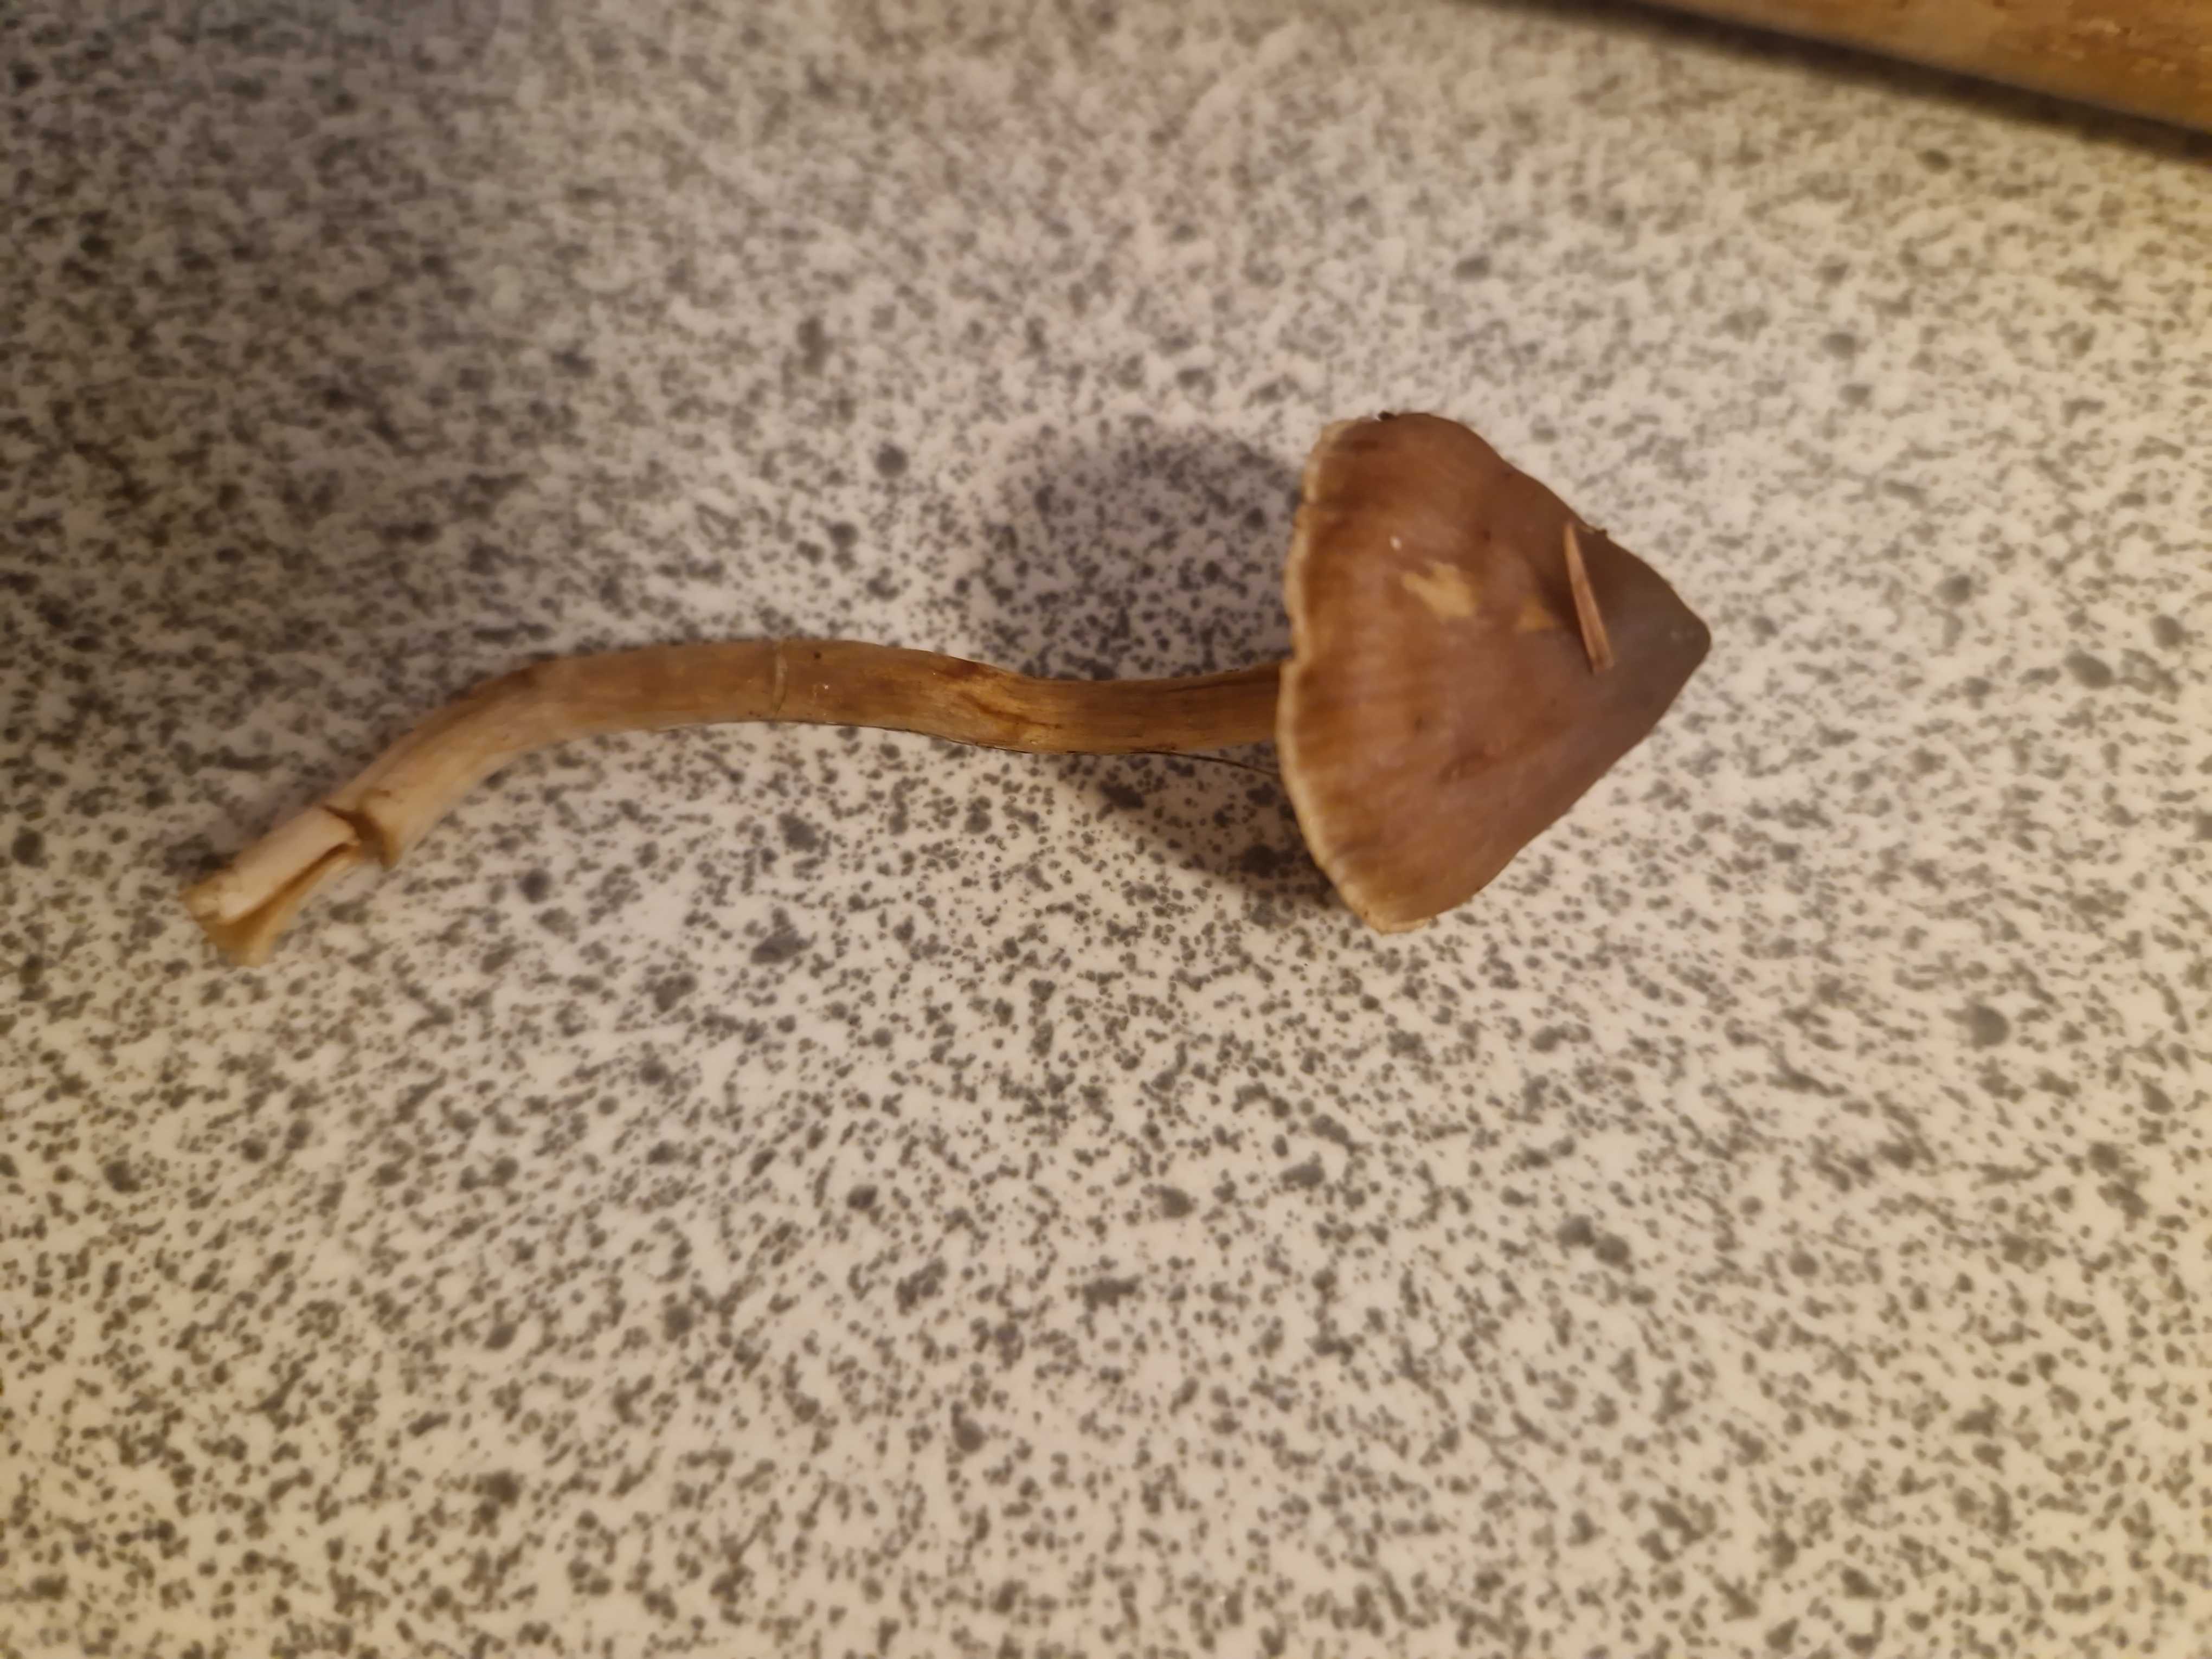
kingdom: Fungi
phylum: Basidiomycota
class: Agaricomycetes
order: Agaricales
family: Cortinariaceae
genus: Cortinarius
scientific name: Cortinarius
